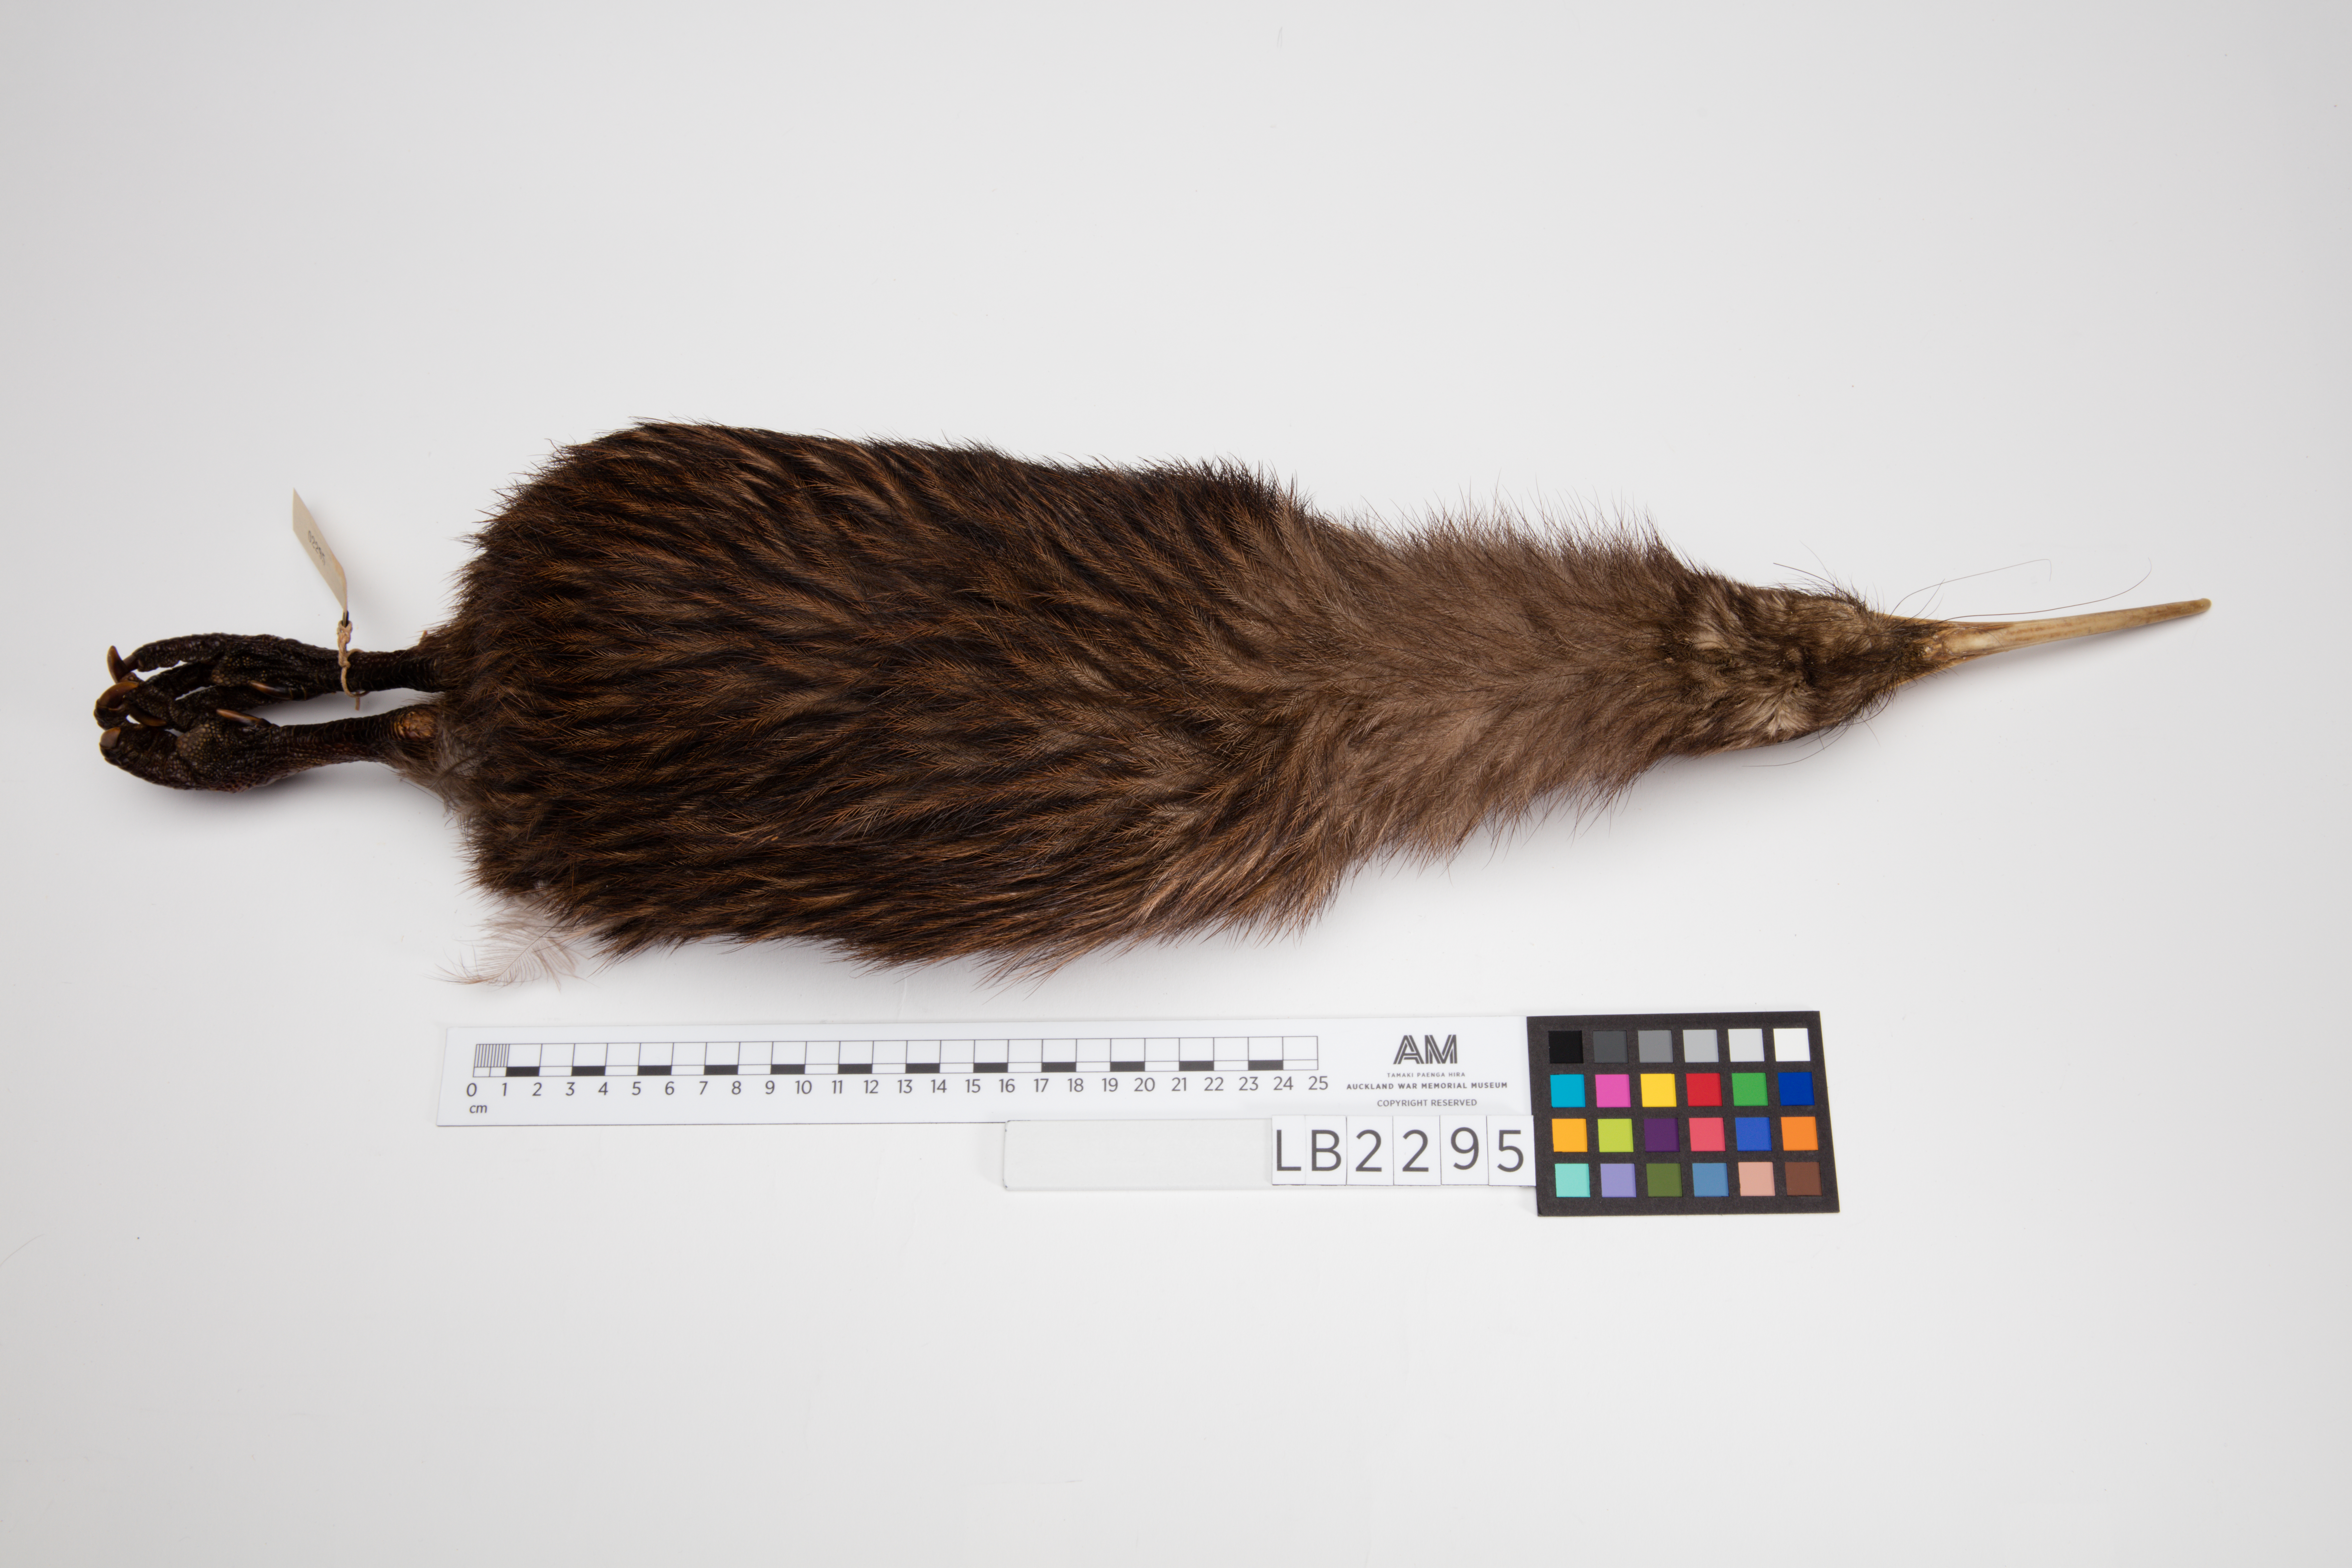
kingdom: Animalia
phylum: Chordata
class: Aves
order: Apterygiformes
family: Apterygidae
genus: Apteryx
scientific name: Apteryx mantelli
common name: North island brown kiwi
